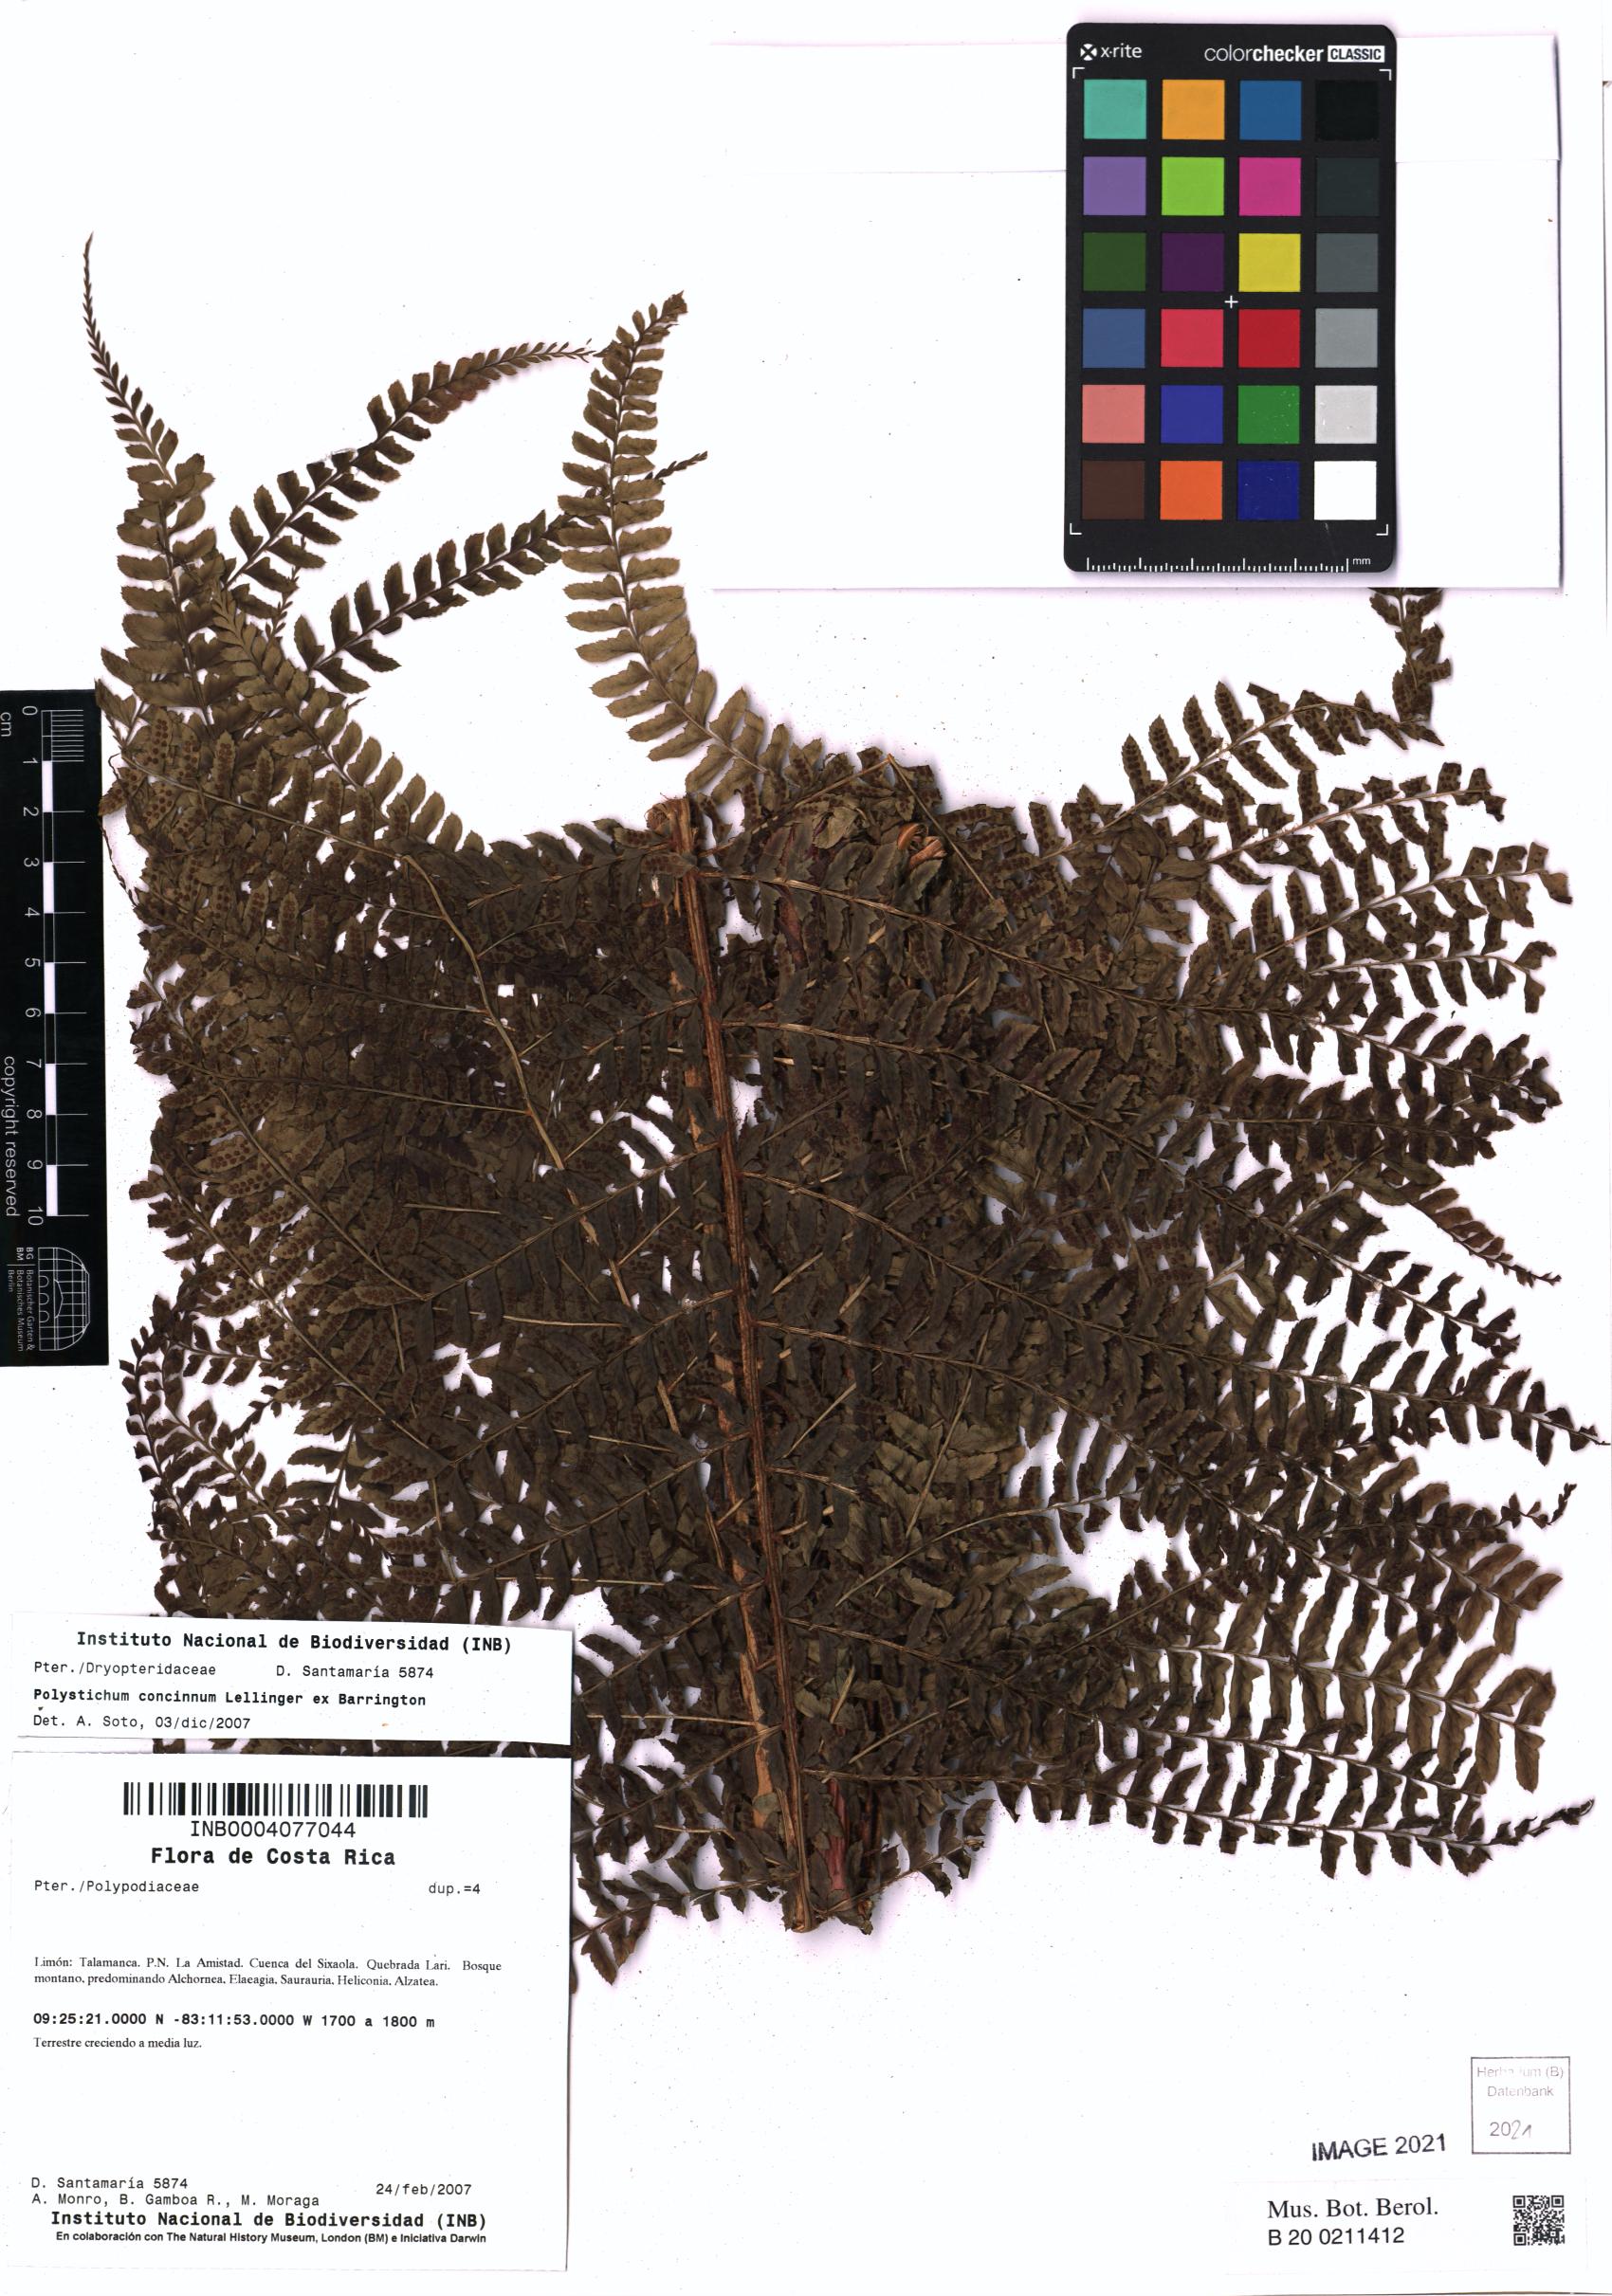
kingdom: Plantae
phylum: Tracheophyta
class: Polypodiopsida
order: Polypodiales
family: Dryopteridaceae
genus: Polystichum
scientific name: Polystichum concinnum
